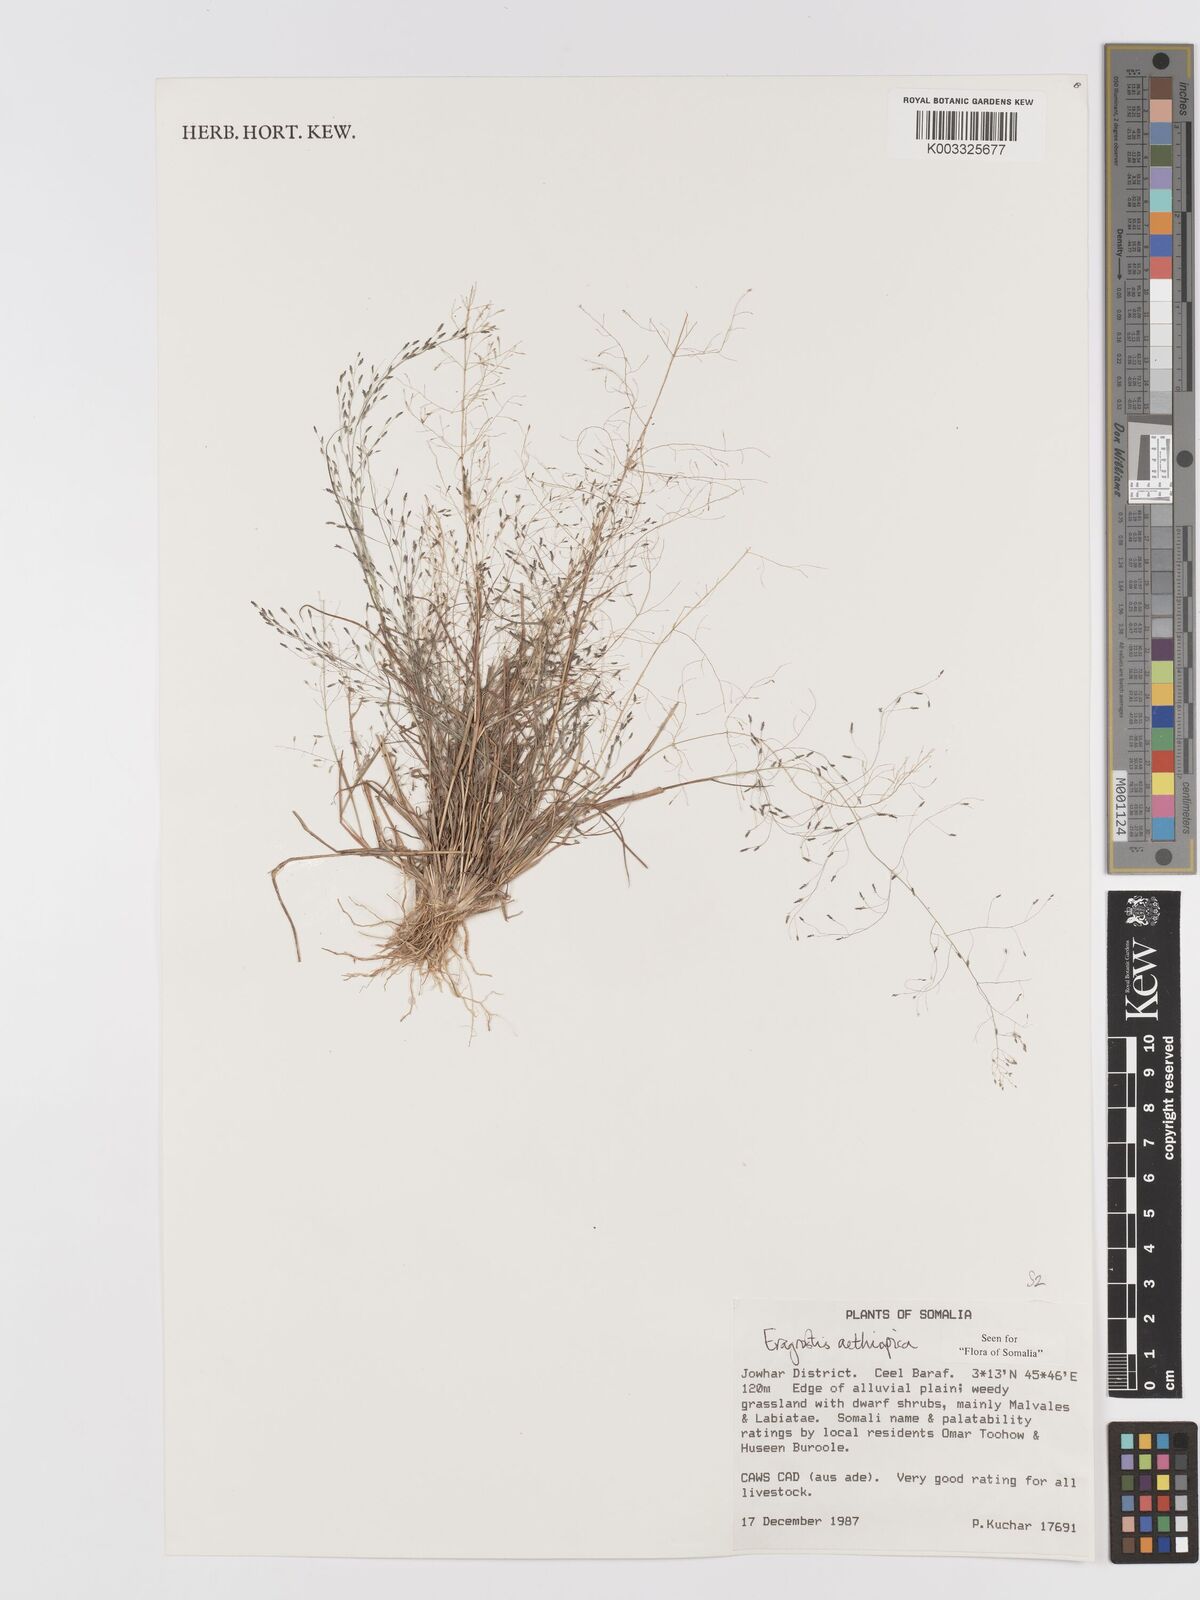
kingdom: Plantae
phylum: Tracheophyta
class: Liliopsida
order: Poales
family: Poaceae
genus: Eragrostis
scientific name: Eragrostis aethiopica
